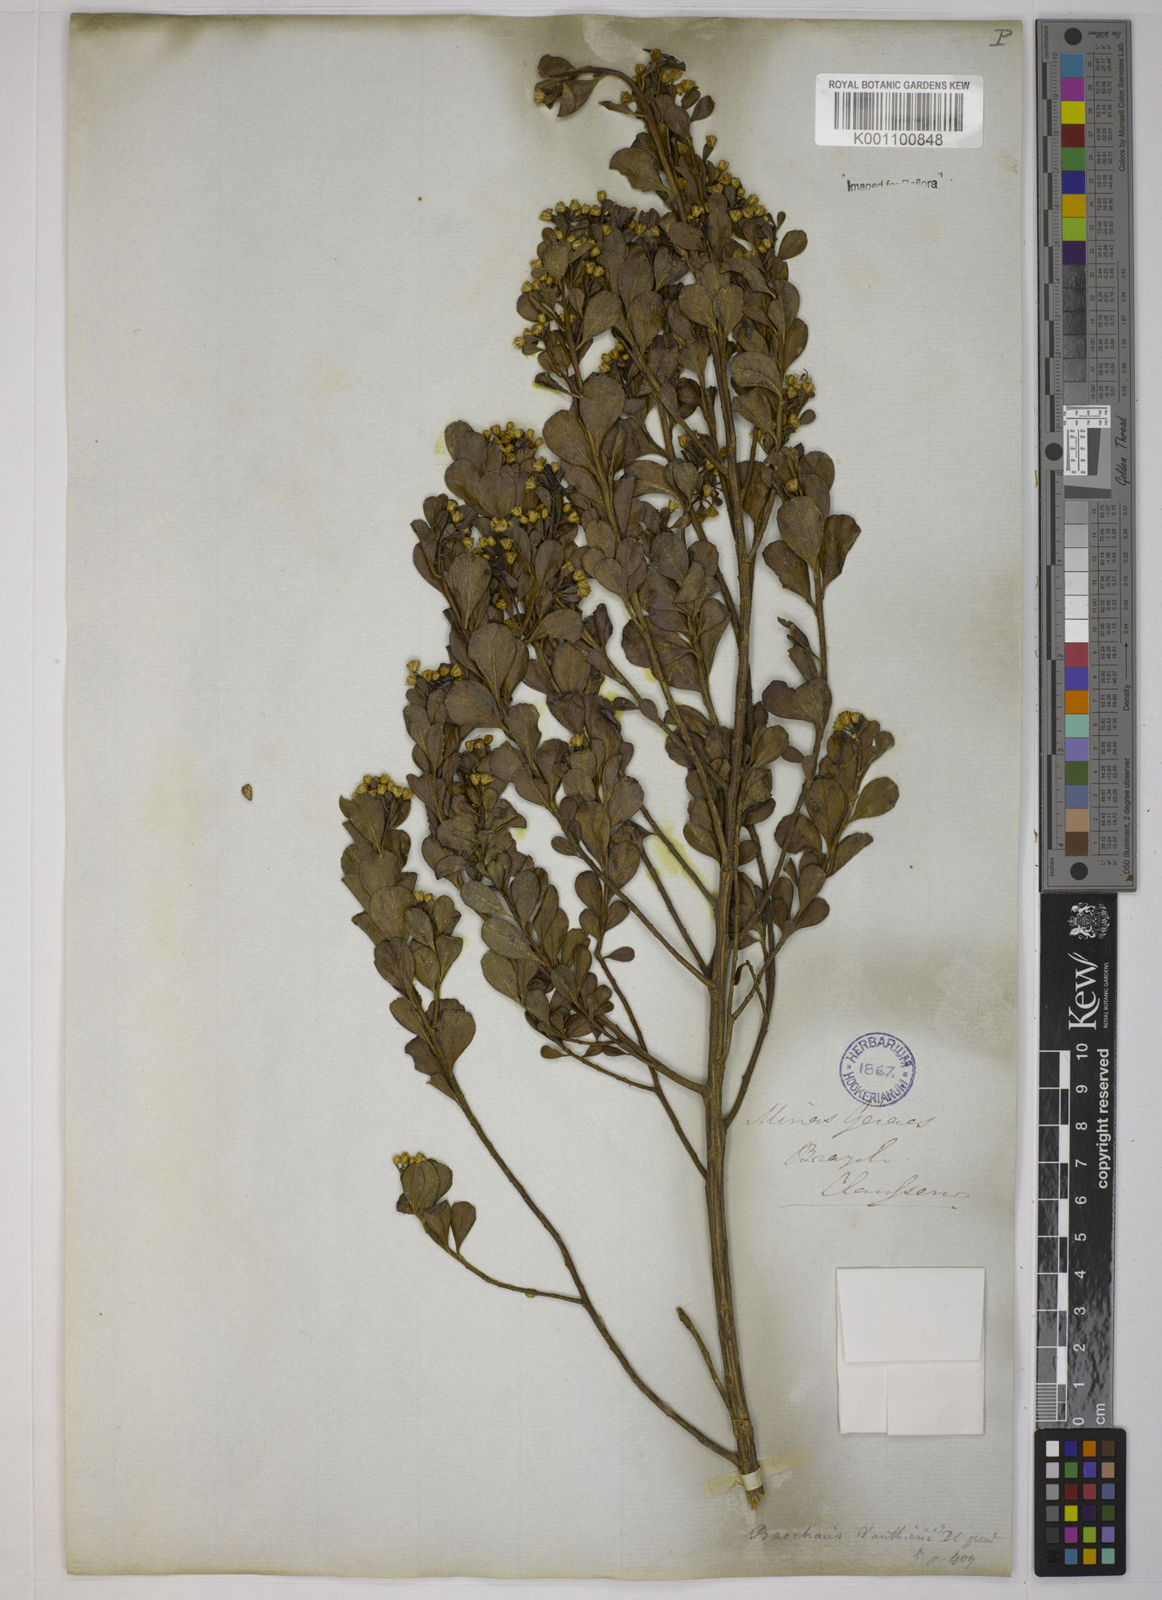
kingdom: Plantae
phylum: Tracheophyta
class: Magnoliopsida
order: Asterales
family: Asteraceae
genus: Baccharis
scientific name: Baccharis reticularia
